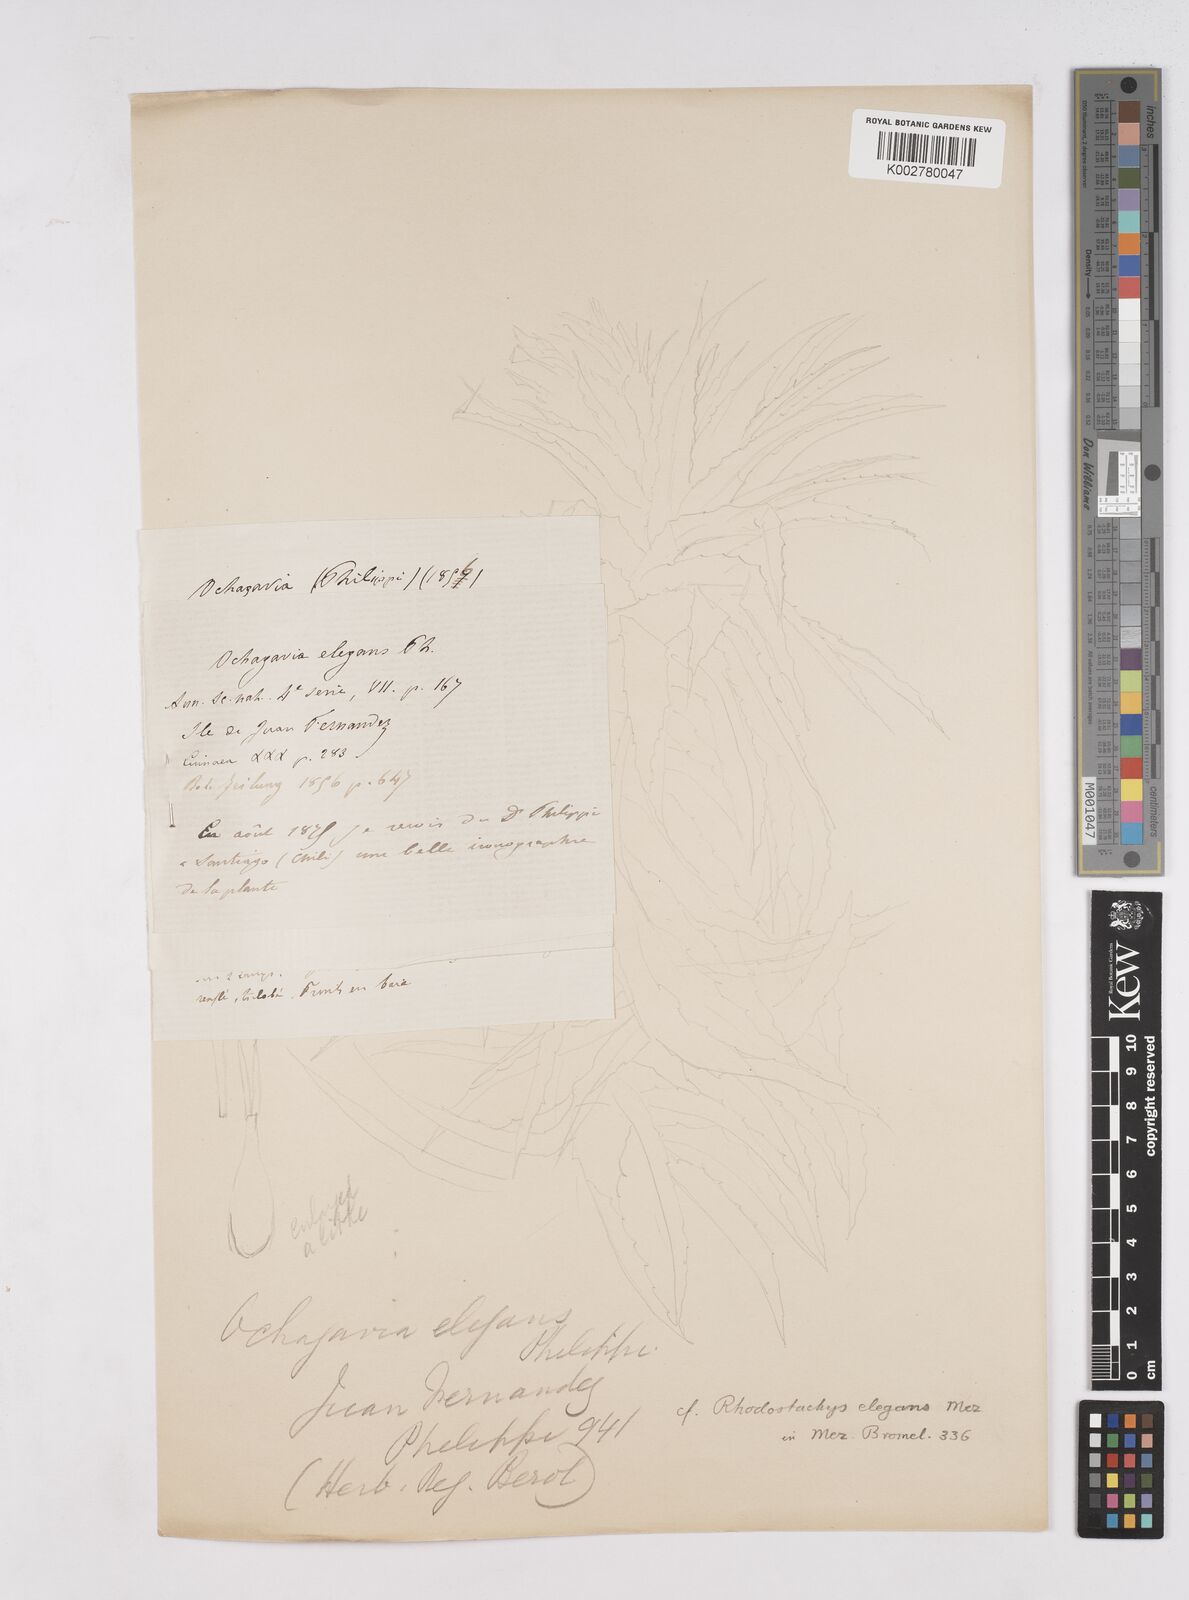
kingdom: Plantae
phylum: Tracheophyta
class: Liliopsida
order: Poales
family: Bromeliaceae
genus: Ochagavia
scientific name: Ochagavia
